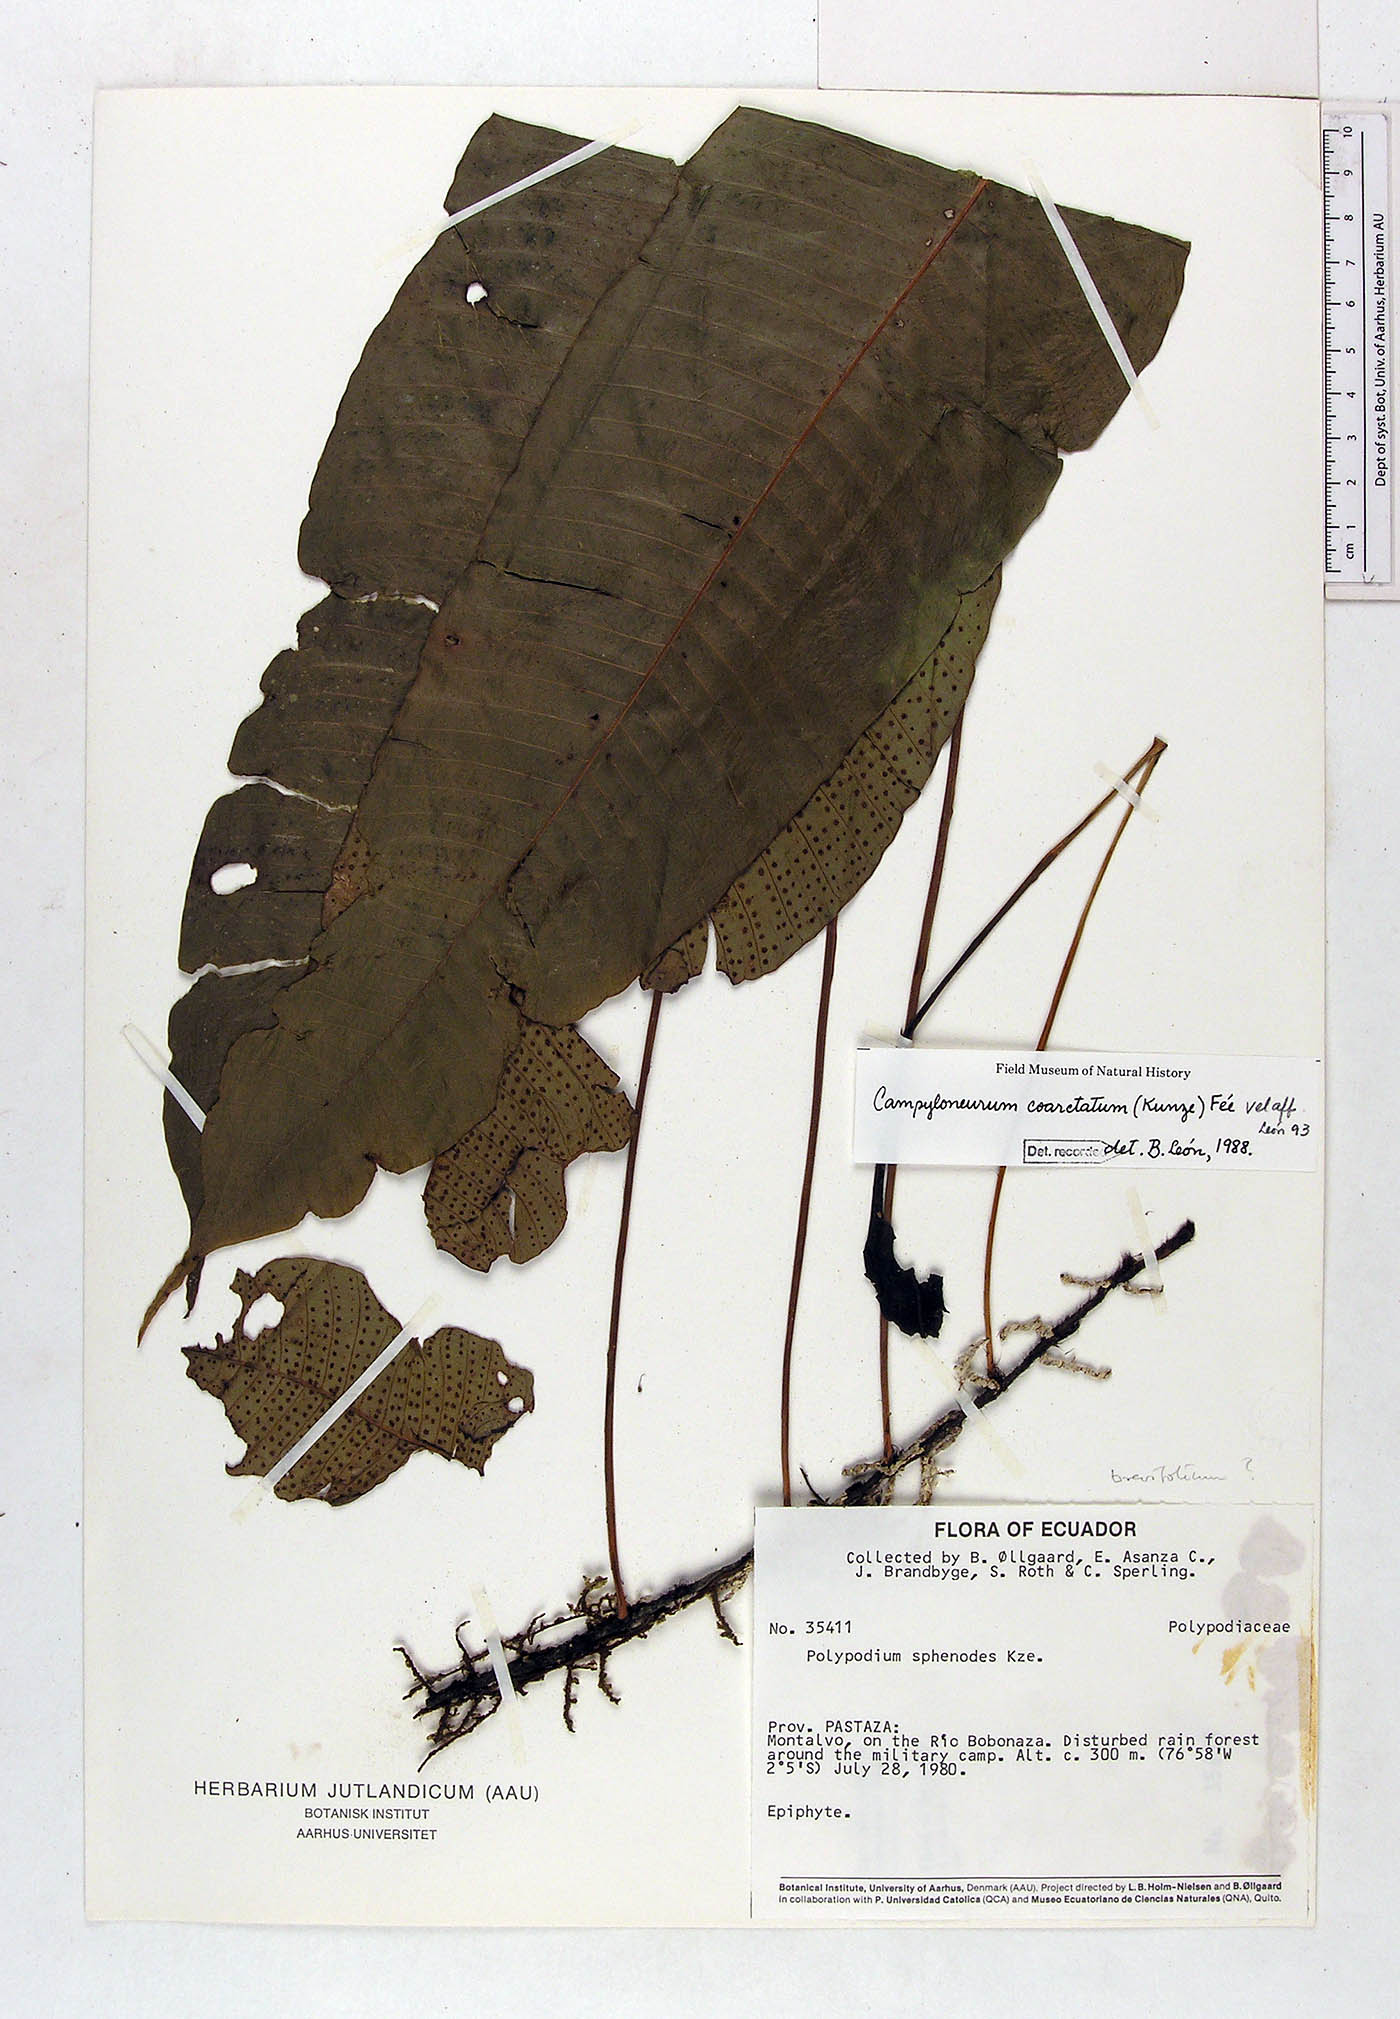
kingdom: Plantae
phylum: Tracheophyta
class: Polypodiopsida
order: Polypodiales
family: Polypodiaceae
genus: Campyloneurum
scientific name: Campyloneurum coarctatum
